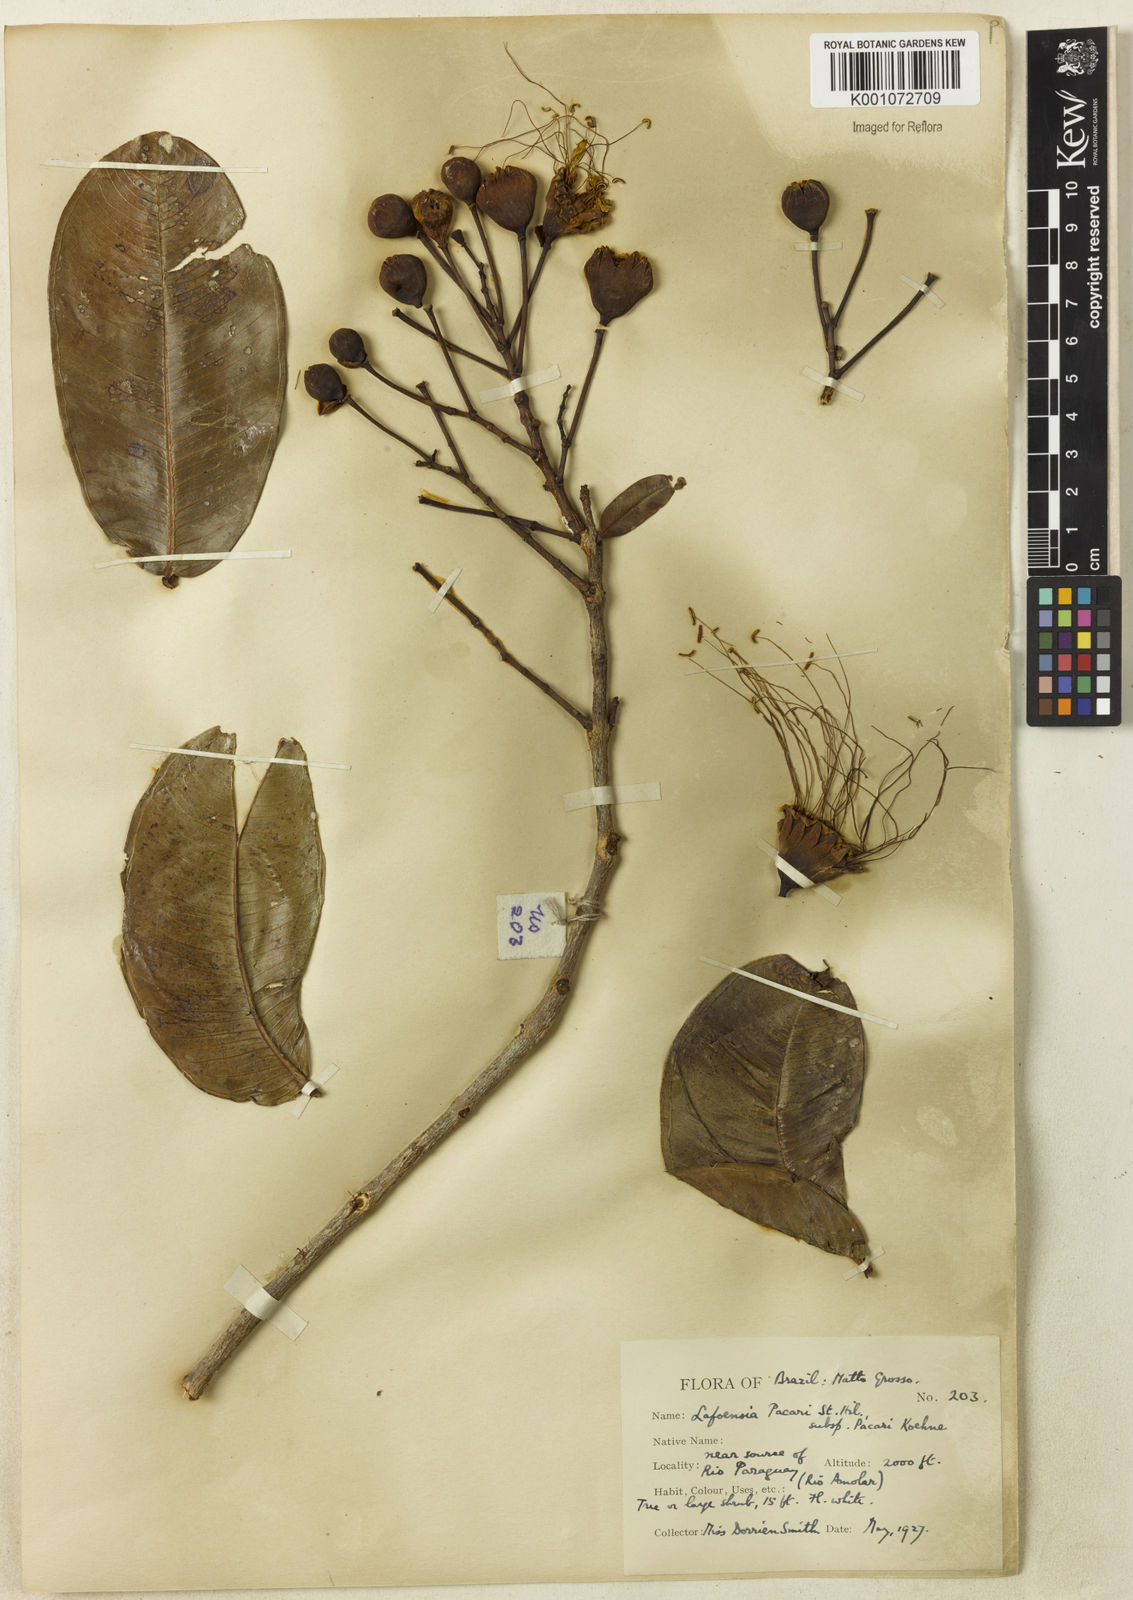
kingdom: Plantae
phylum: Tracheophyta
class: Magnoliopsida
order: Myrtales
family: Lythraceae
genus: Lafoensia
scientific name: Lafoensia pacari
